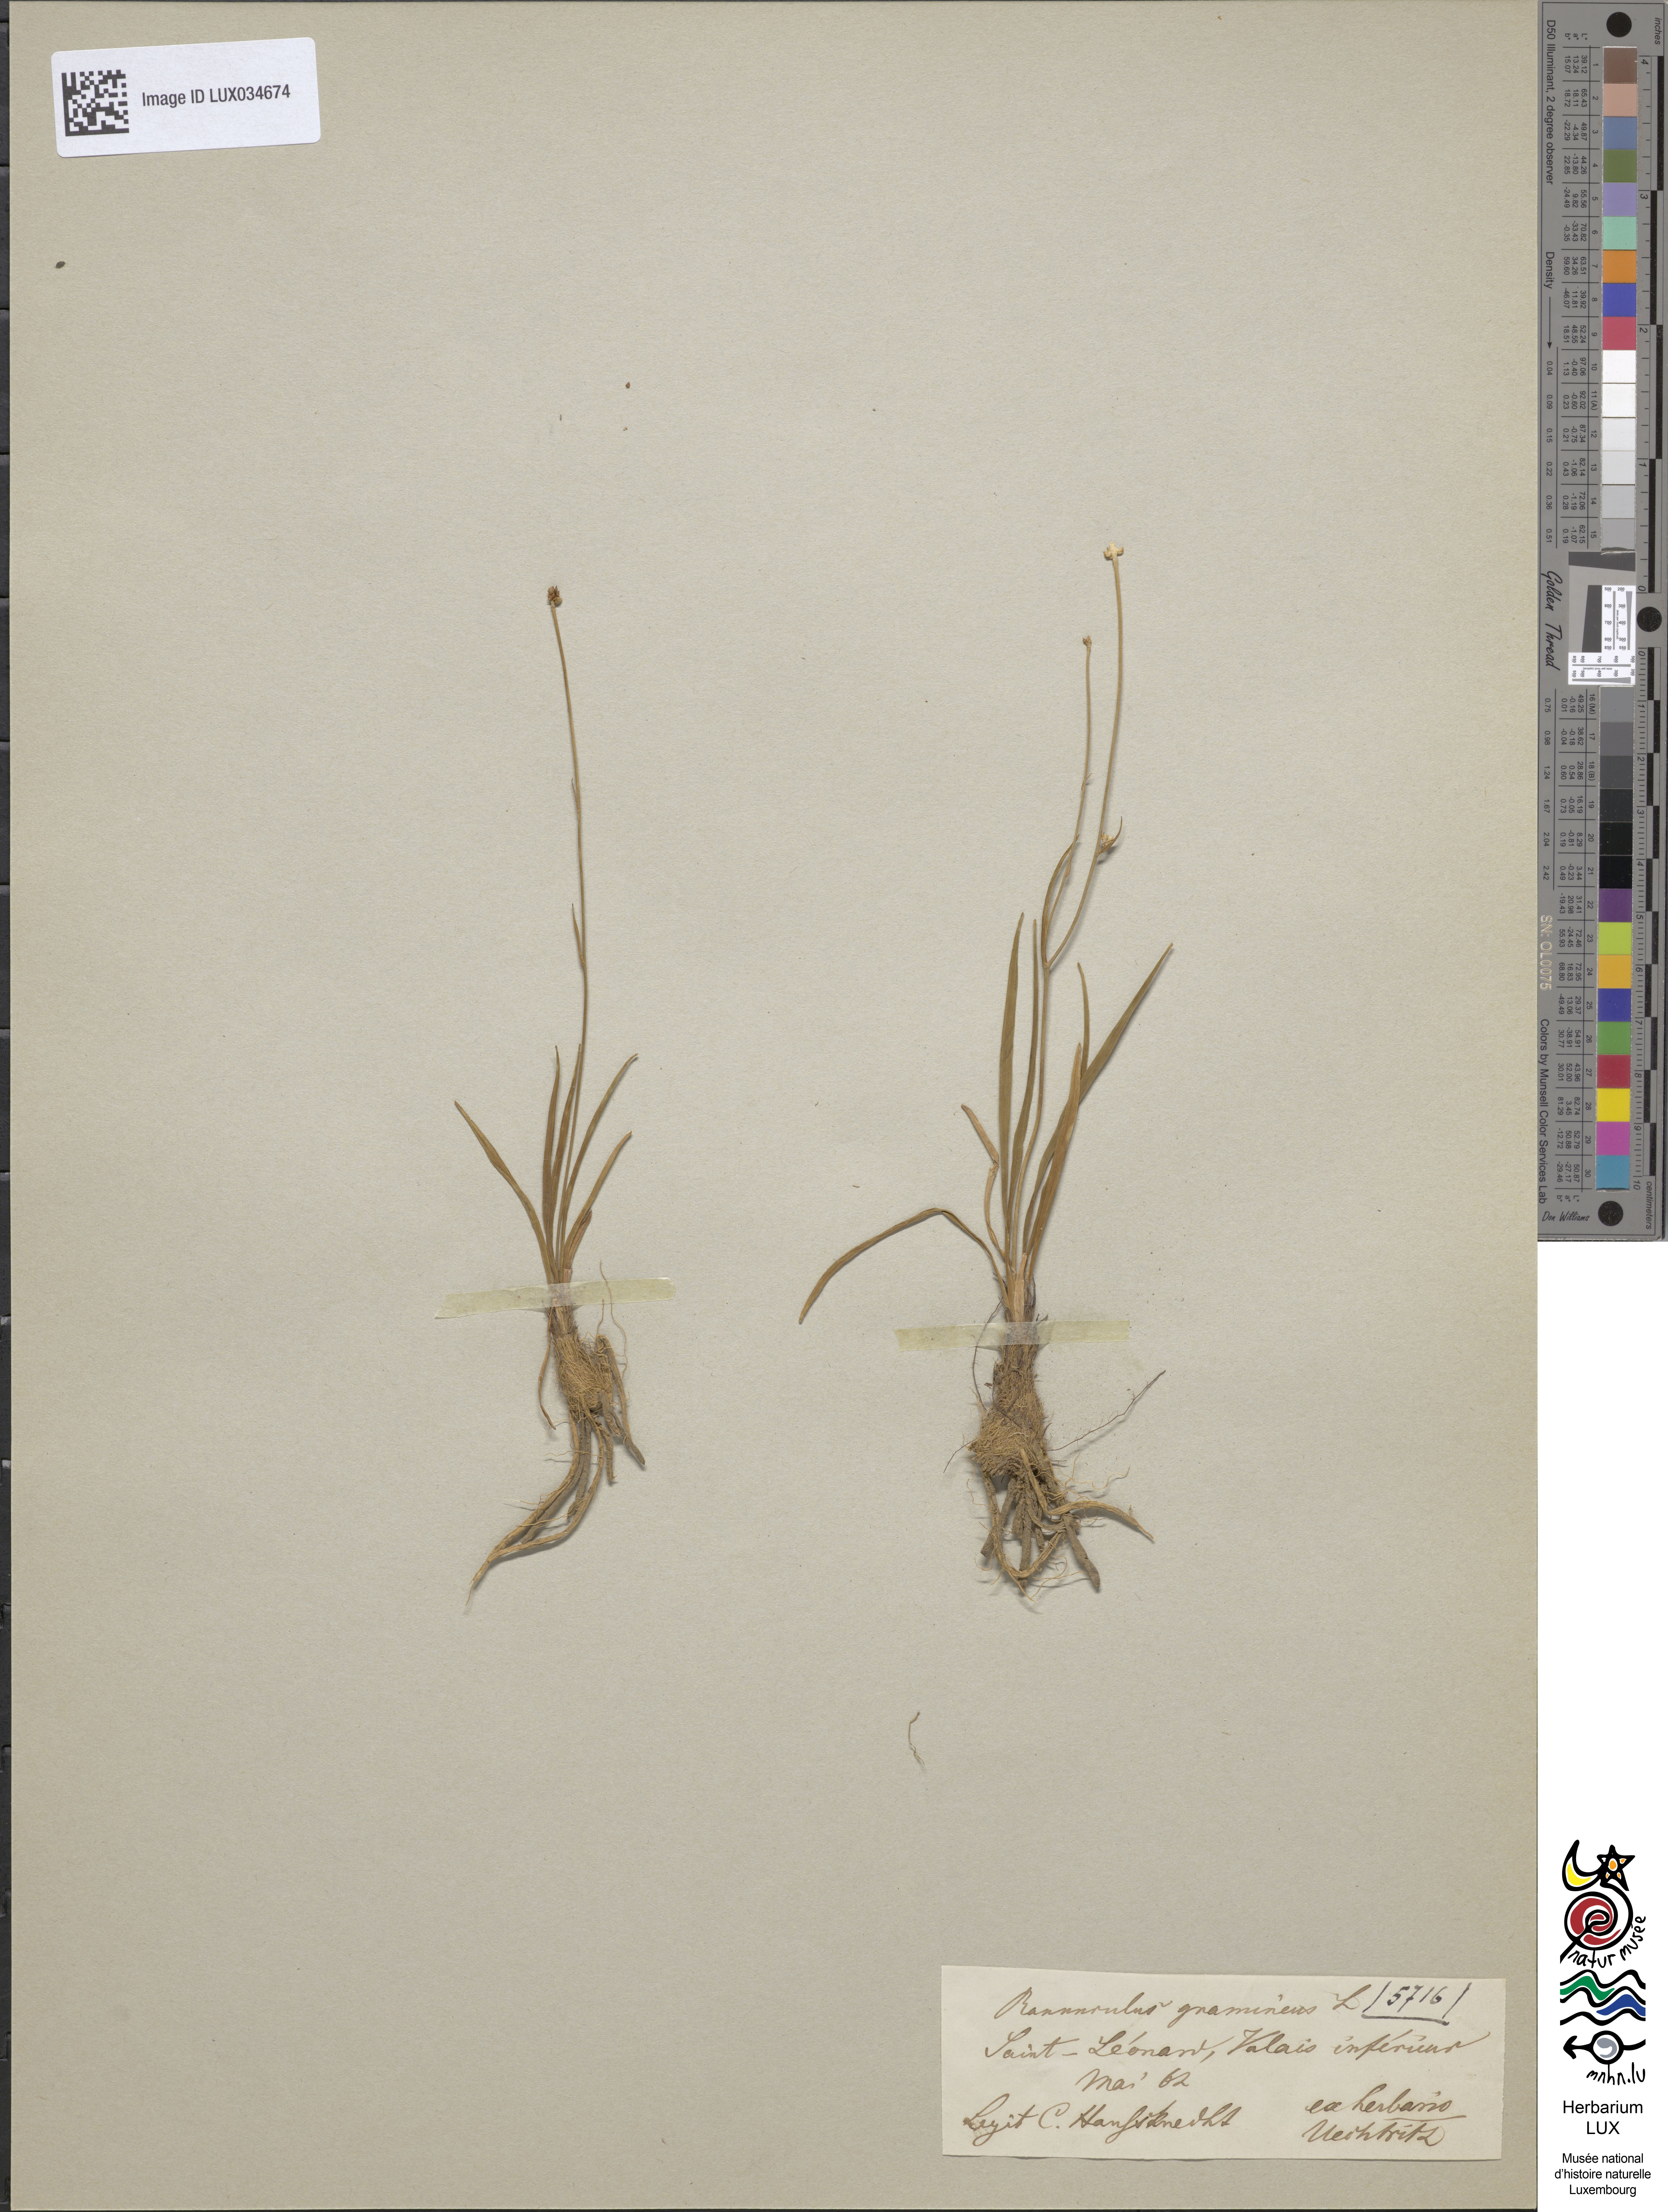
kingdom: Plantae
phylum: Tracheophyta
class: Magnoliopsida
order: Ranunculales
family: Ranunculaceae
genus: Ranunculus
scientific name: Ranunculus gramineus
